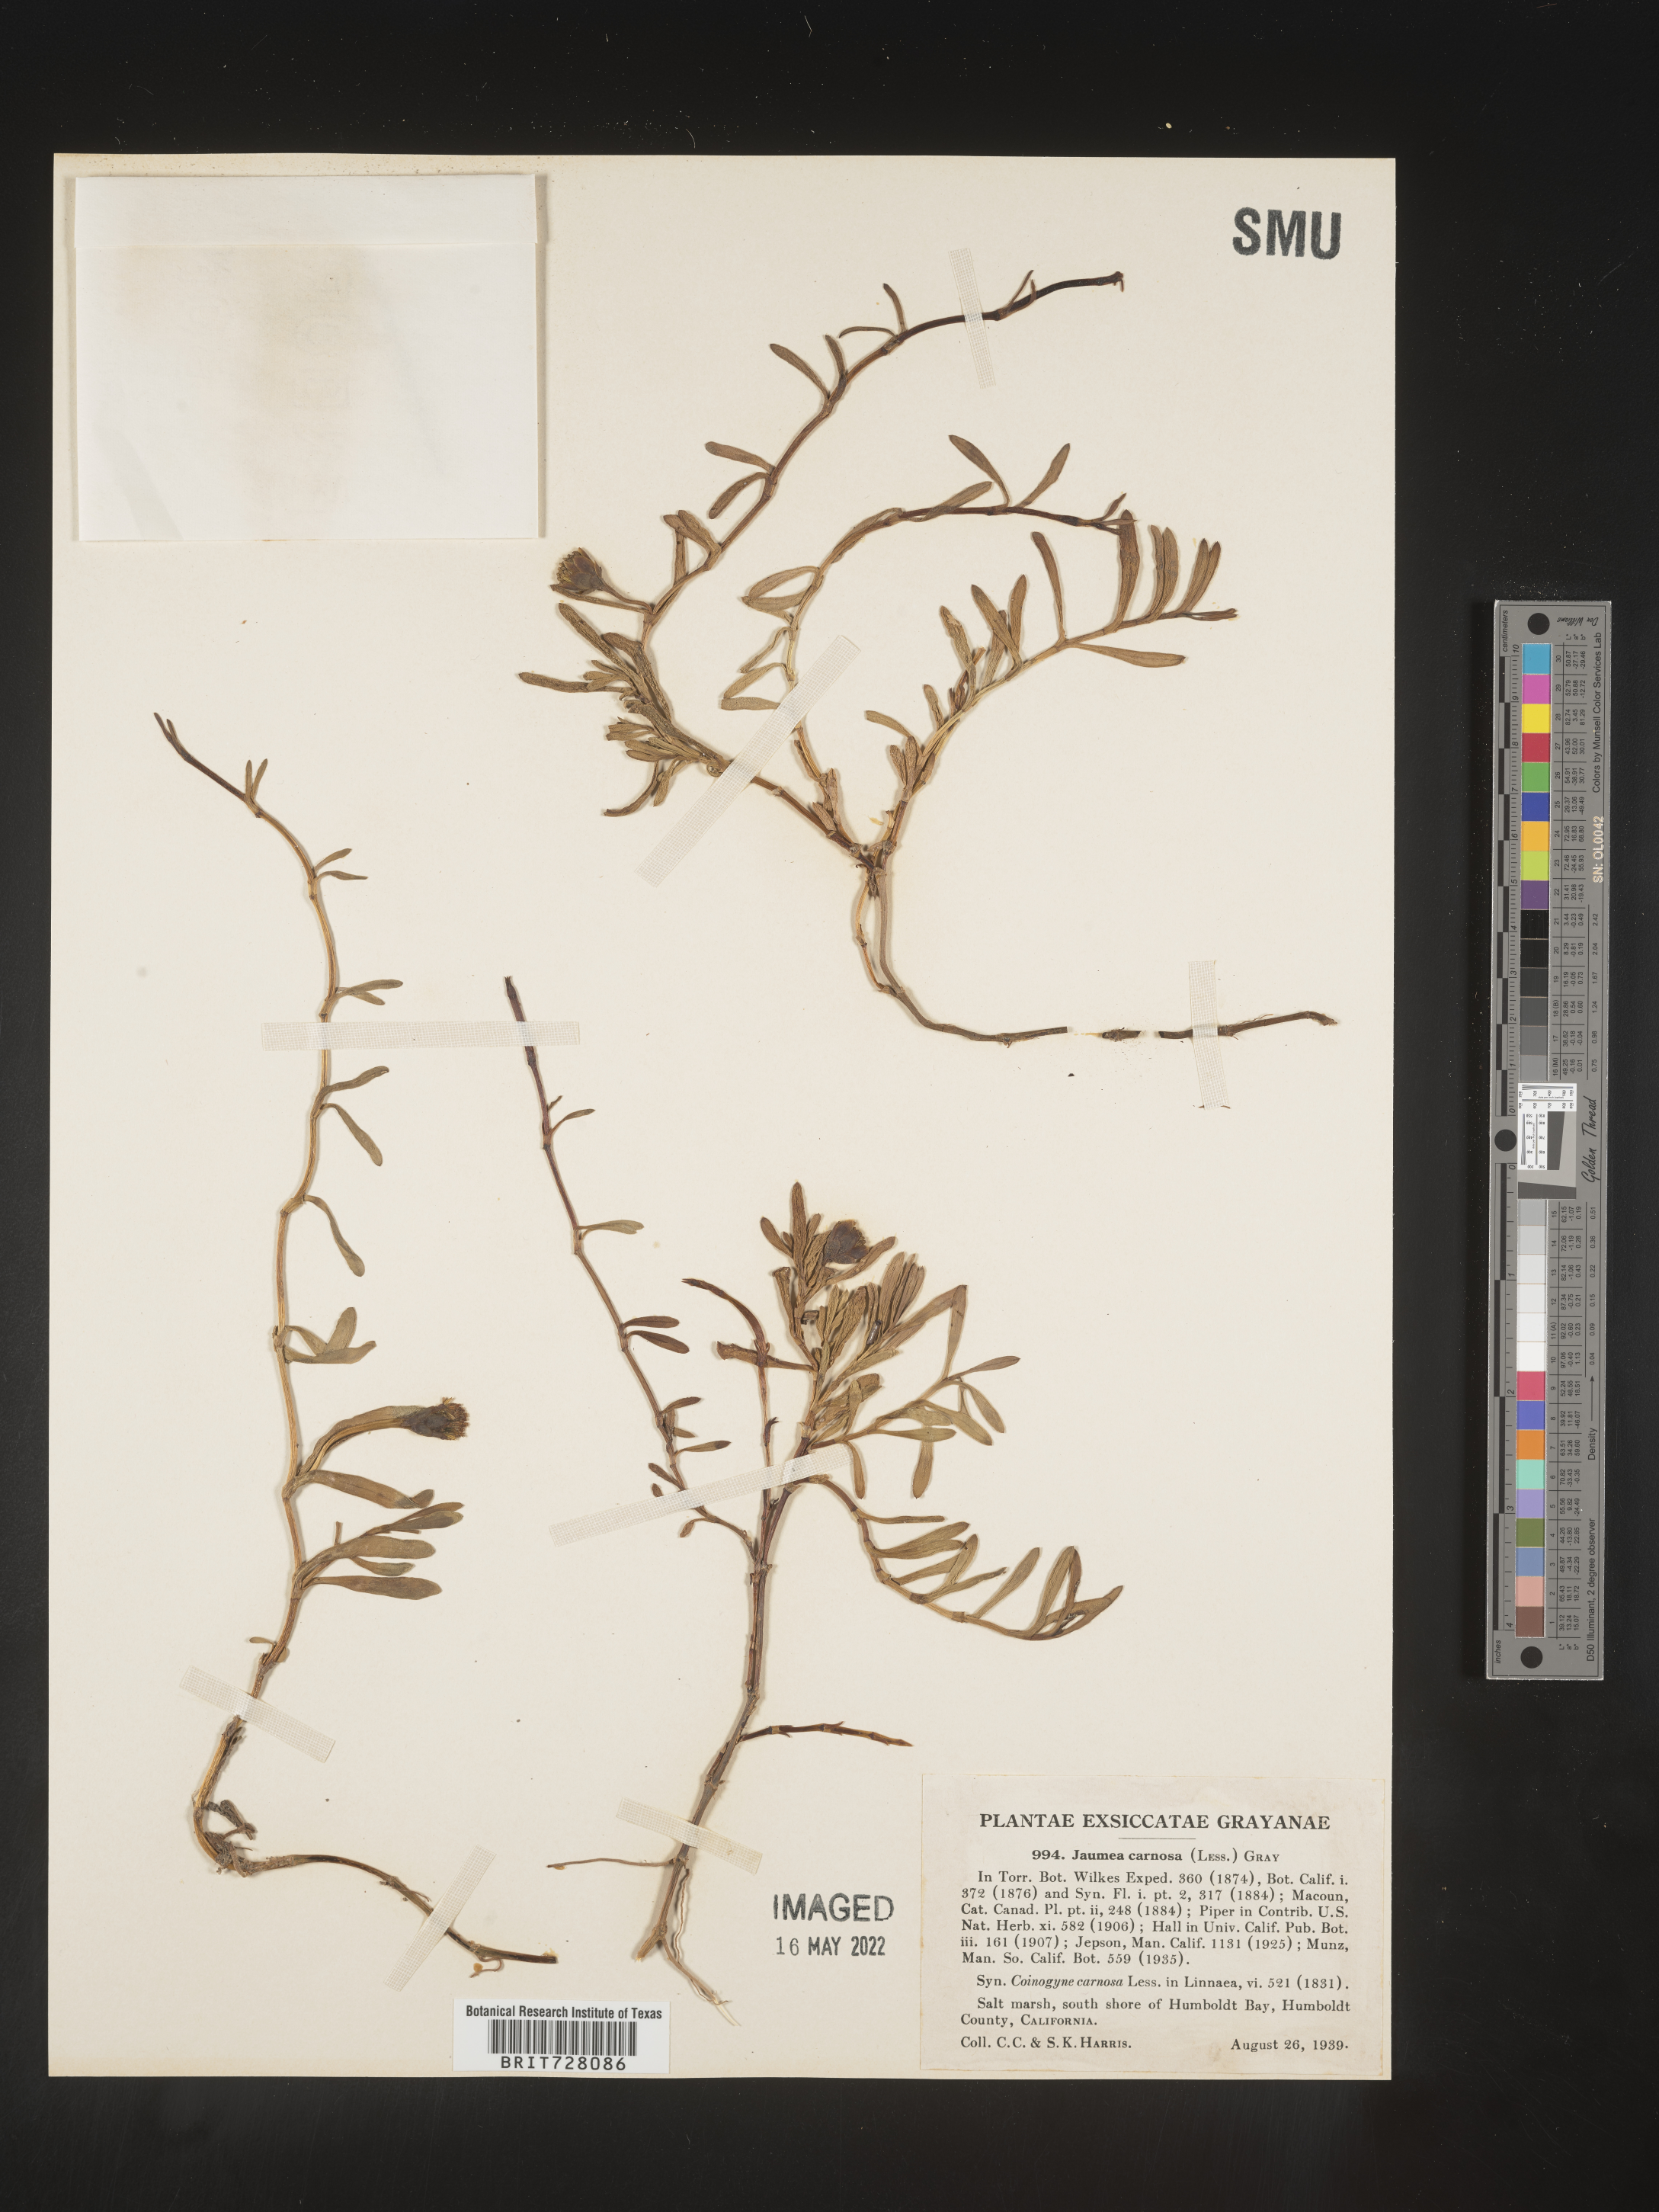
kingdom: Plantae
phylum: Tracheophyta
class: Magnoliopsida
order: Asterales
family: Asteraceae
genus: Jaumea
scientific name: Jaumea
